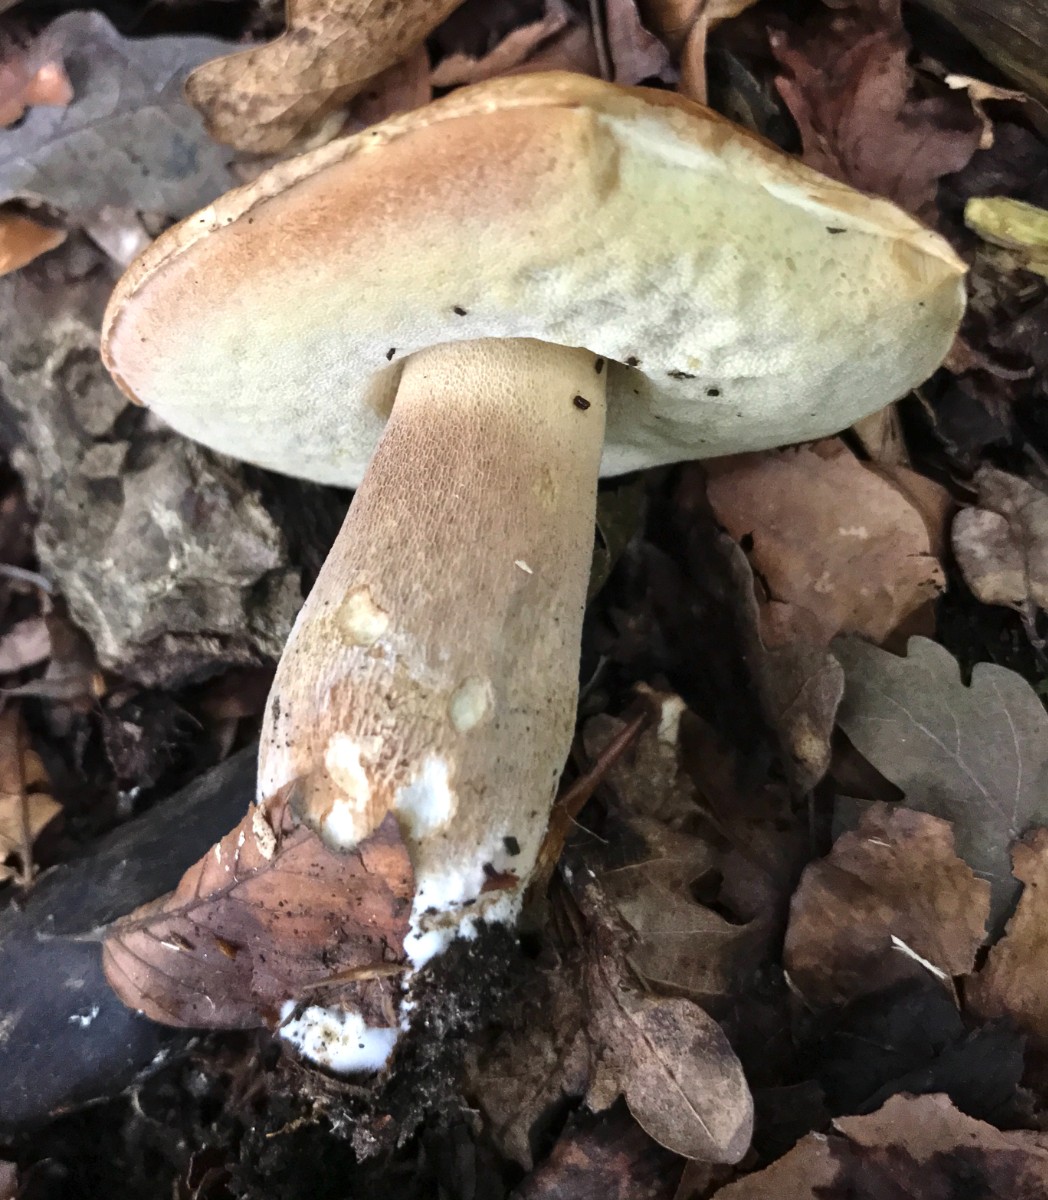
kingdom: Fungi
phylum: Basidiomycota
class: Agaricomycetes
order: Boletales
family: Boletaceae
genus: Boletus
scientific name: Boletus edulis
